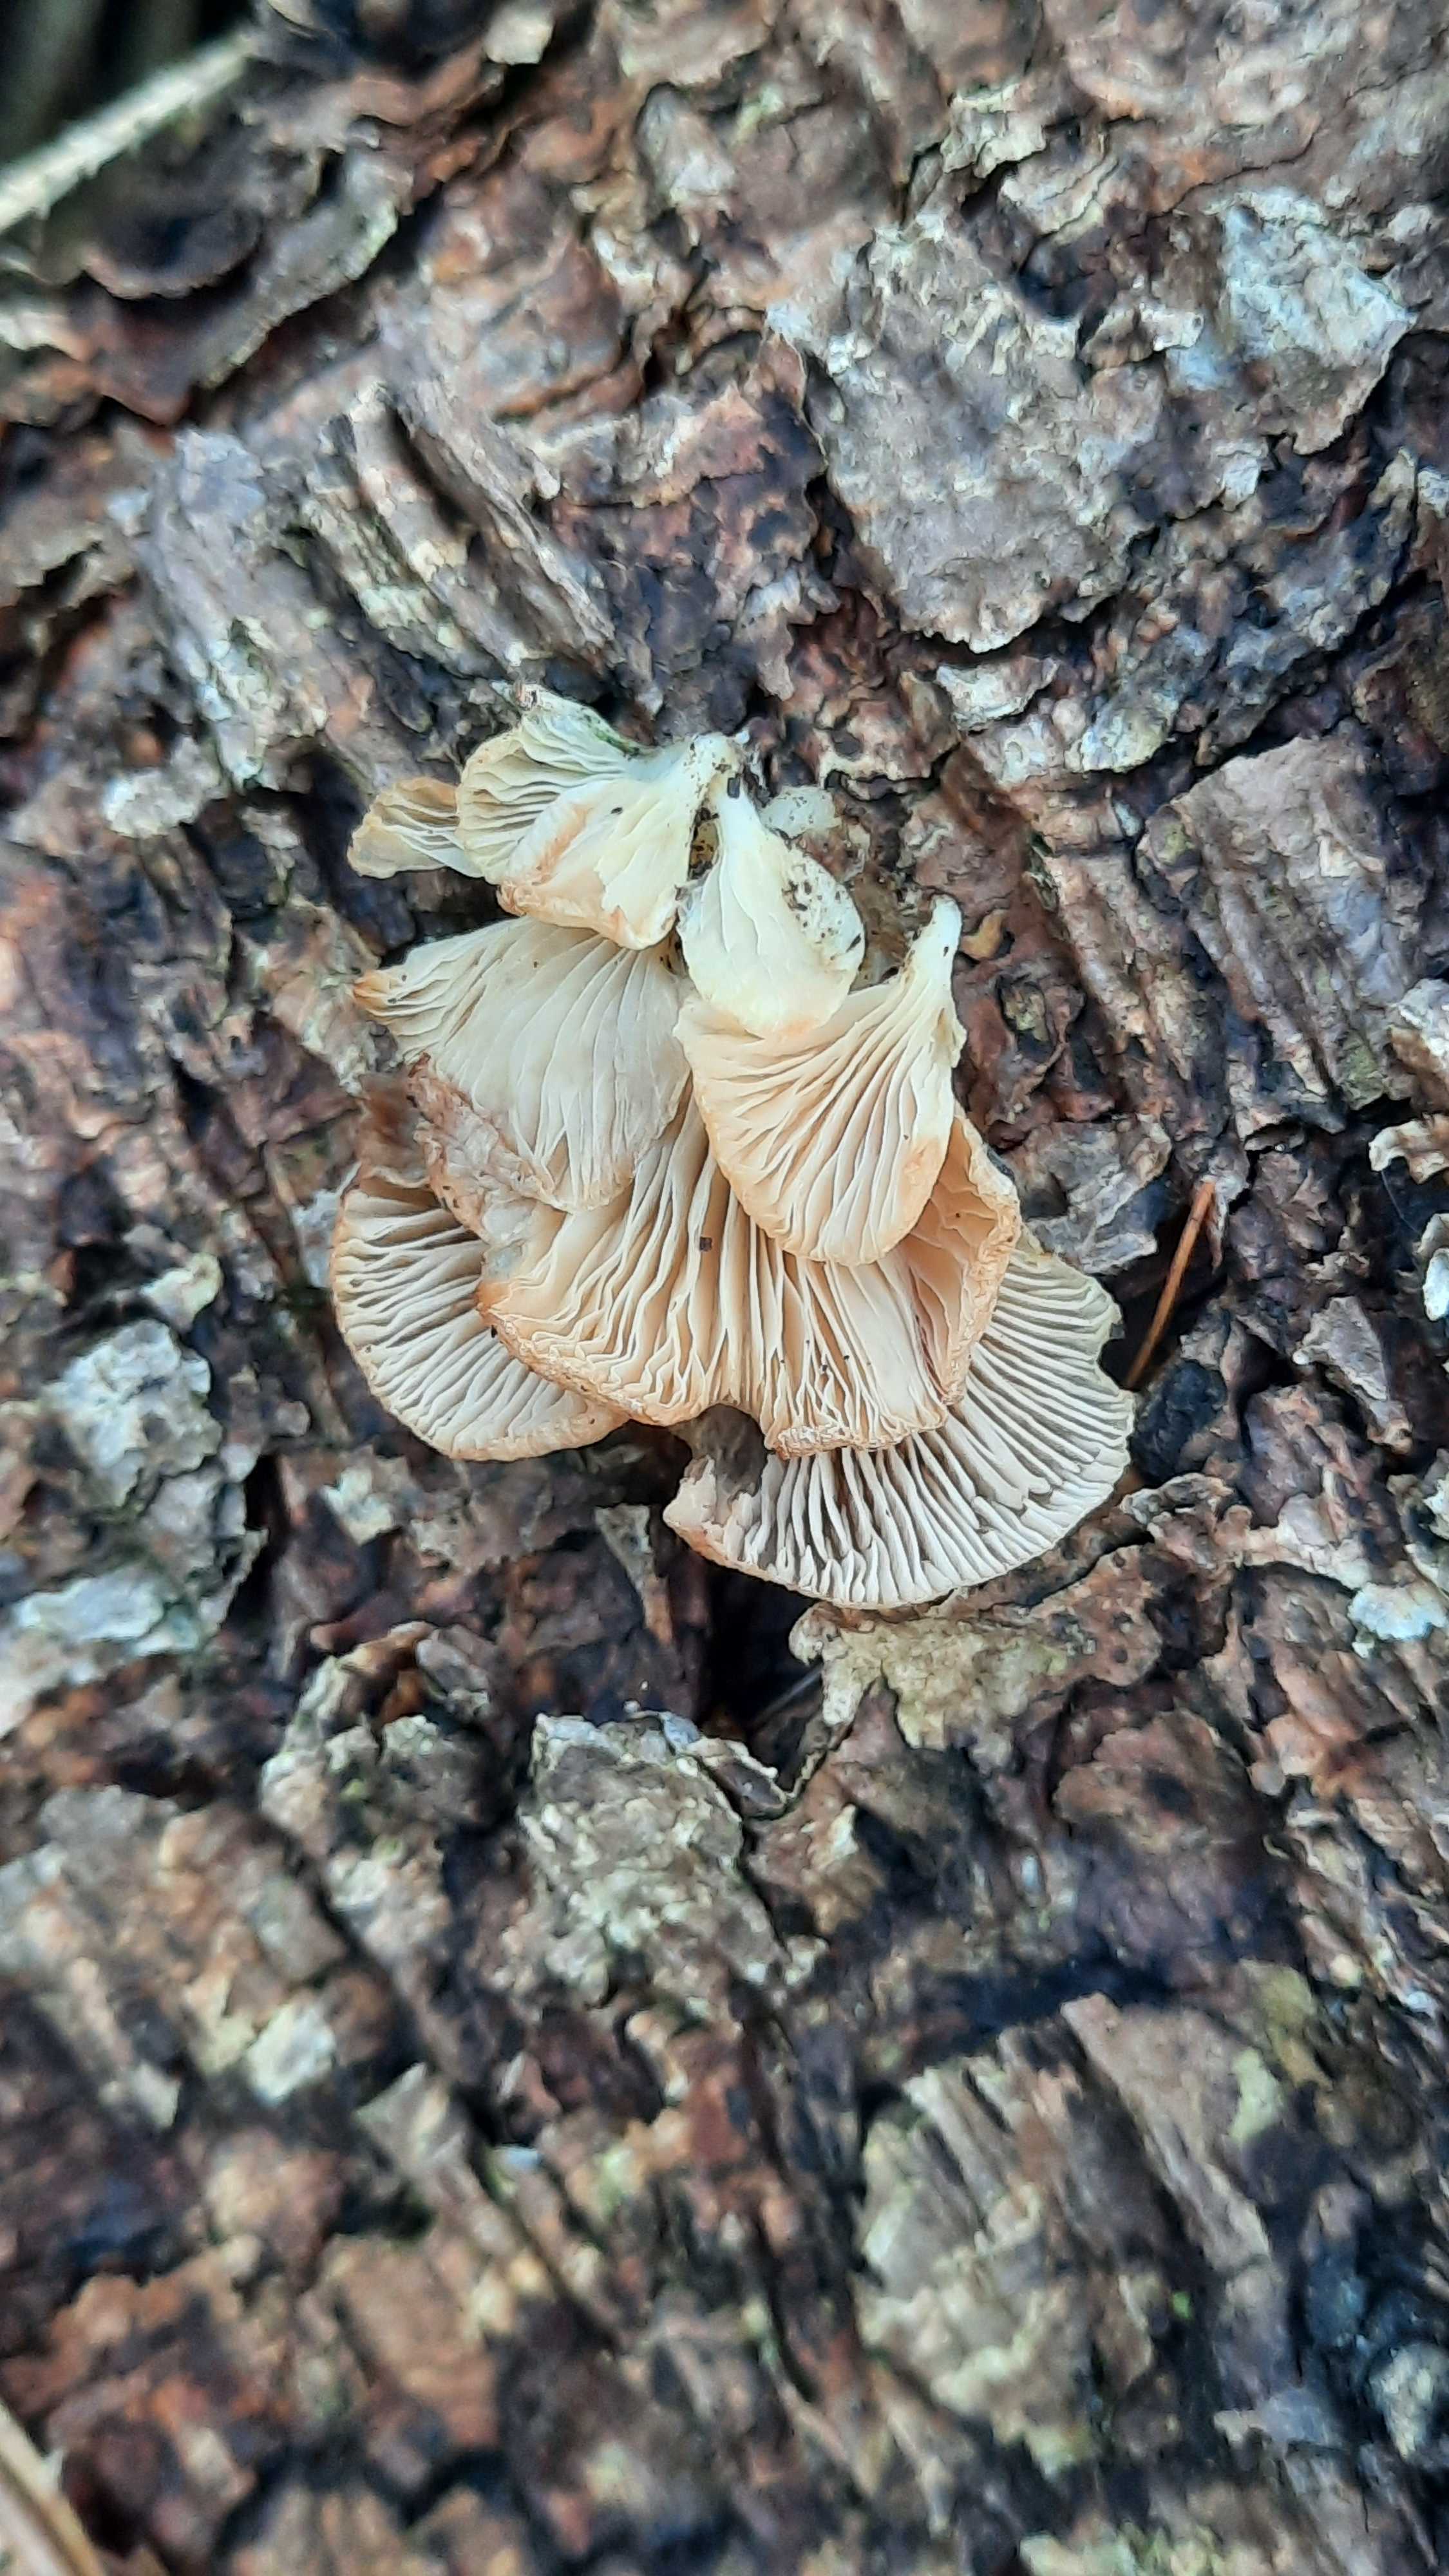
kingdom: Fungi
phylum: Basidiomycota
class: Agaricomycetes
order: Agaricales
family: Mycenaceae
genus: Panellus
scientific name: Panellus mitis
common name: mild epaulethat
